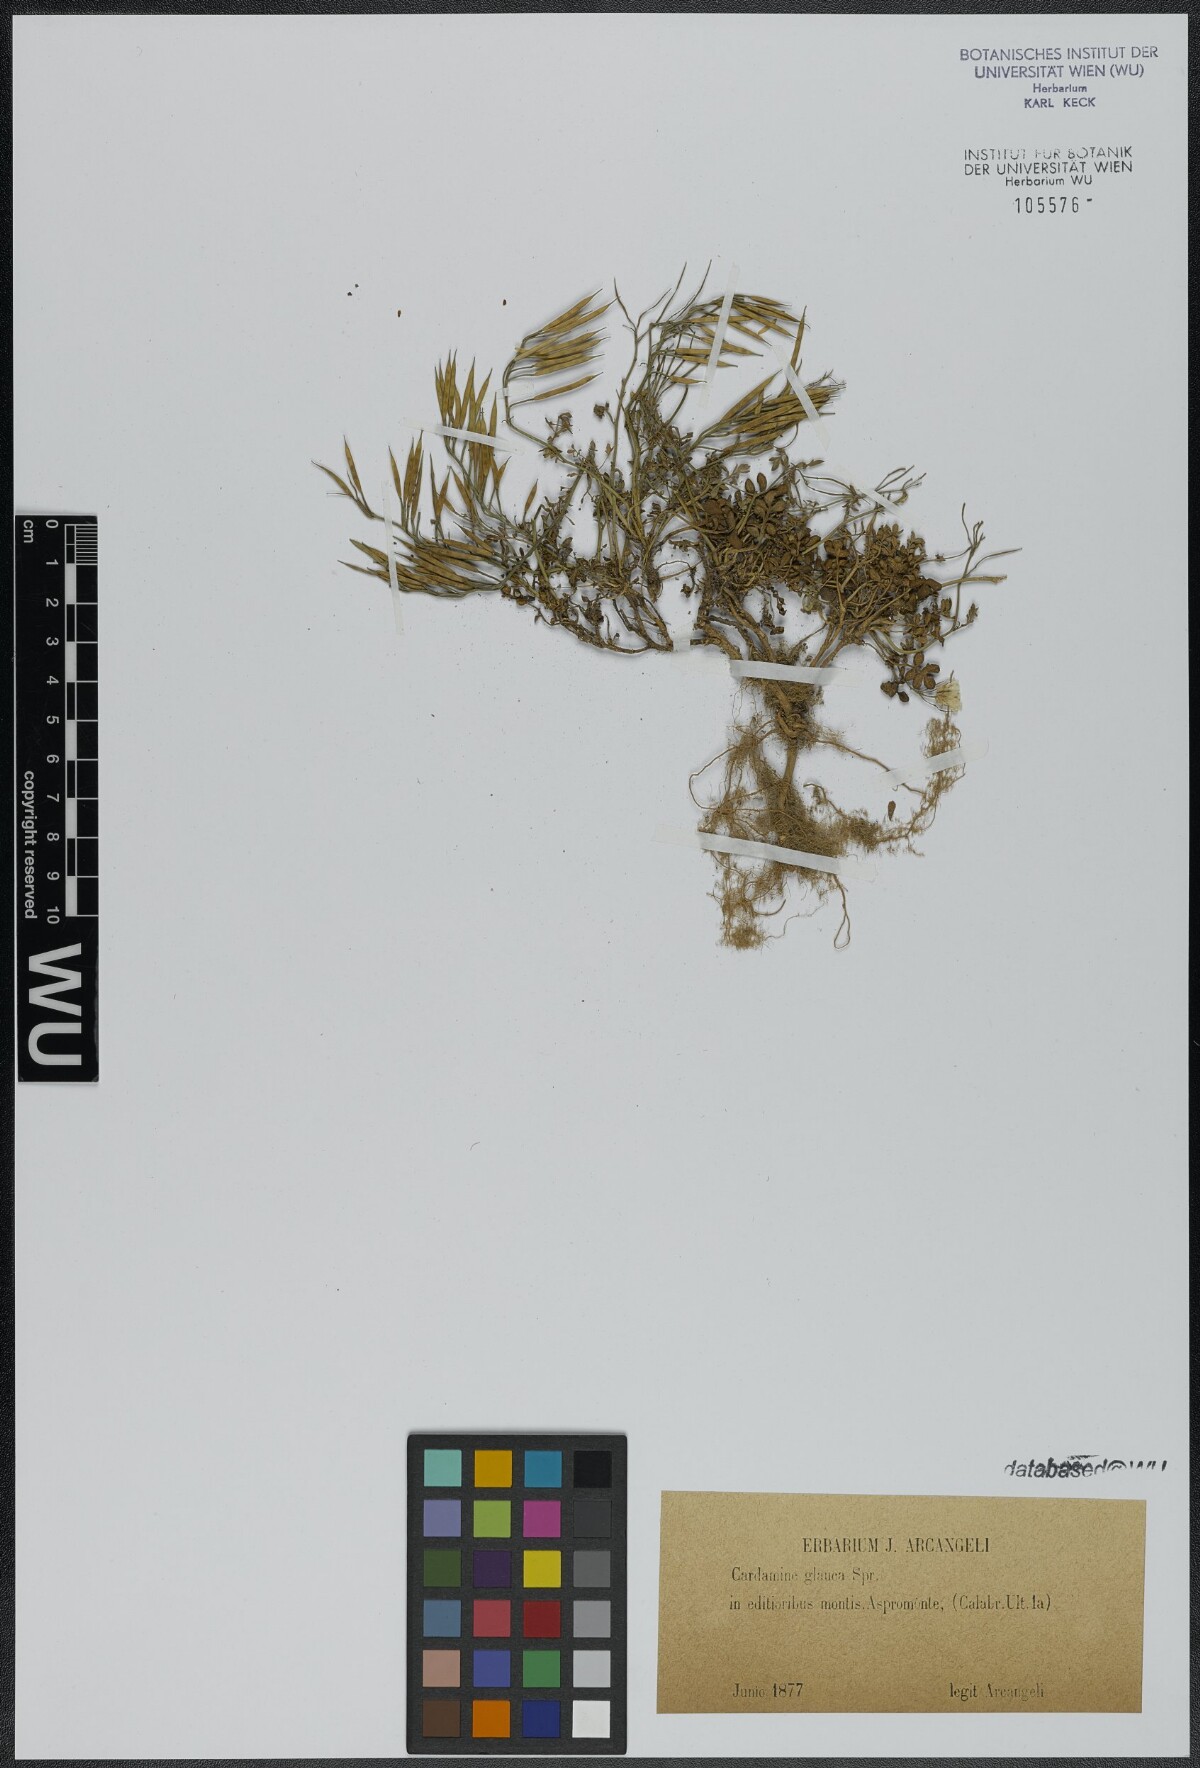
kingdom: Plantae
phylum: Tracheophyta
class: Magnoliopsida
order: Brassicales
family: Brassicaceae
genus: Cardamine
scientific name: Cardamine glauca
